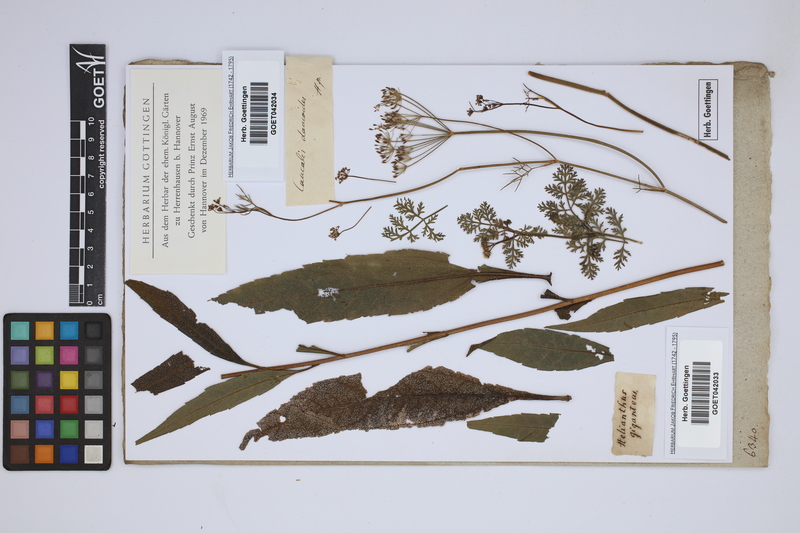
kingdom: Plantae
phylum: Tracheophyta
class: Magnoliopsida
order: Asterales
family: Asteraceae
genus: Helianthus
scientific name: Helianthus giganteus
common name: Giant sunflower
